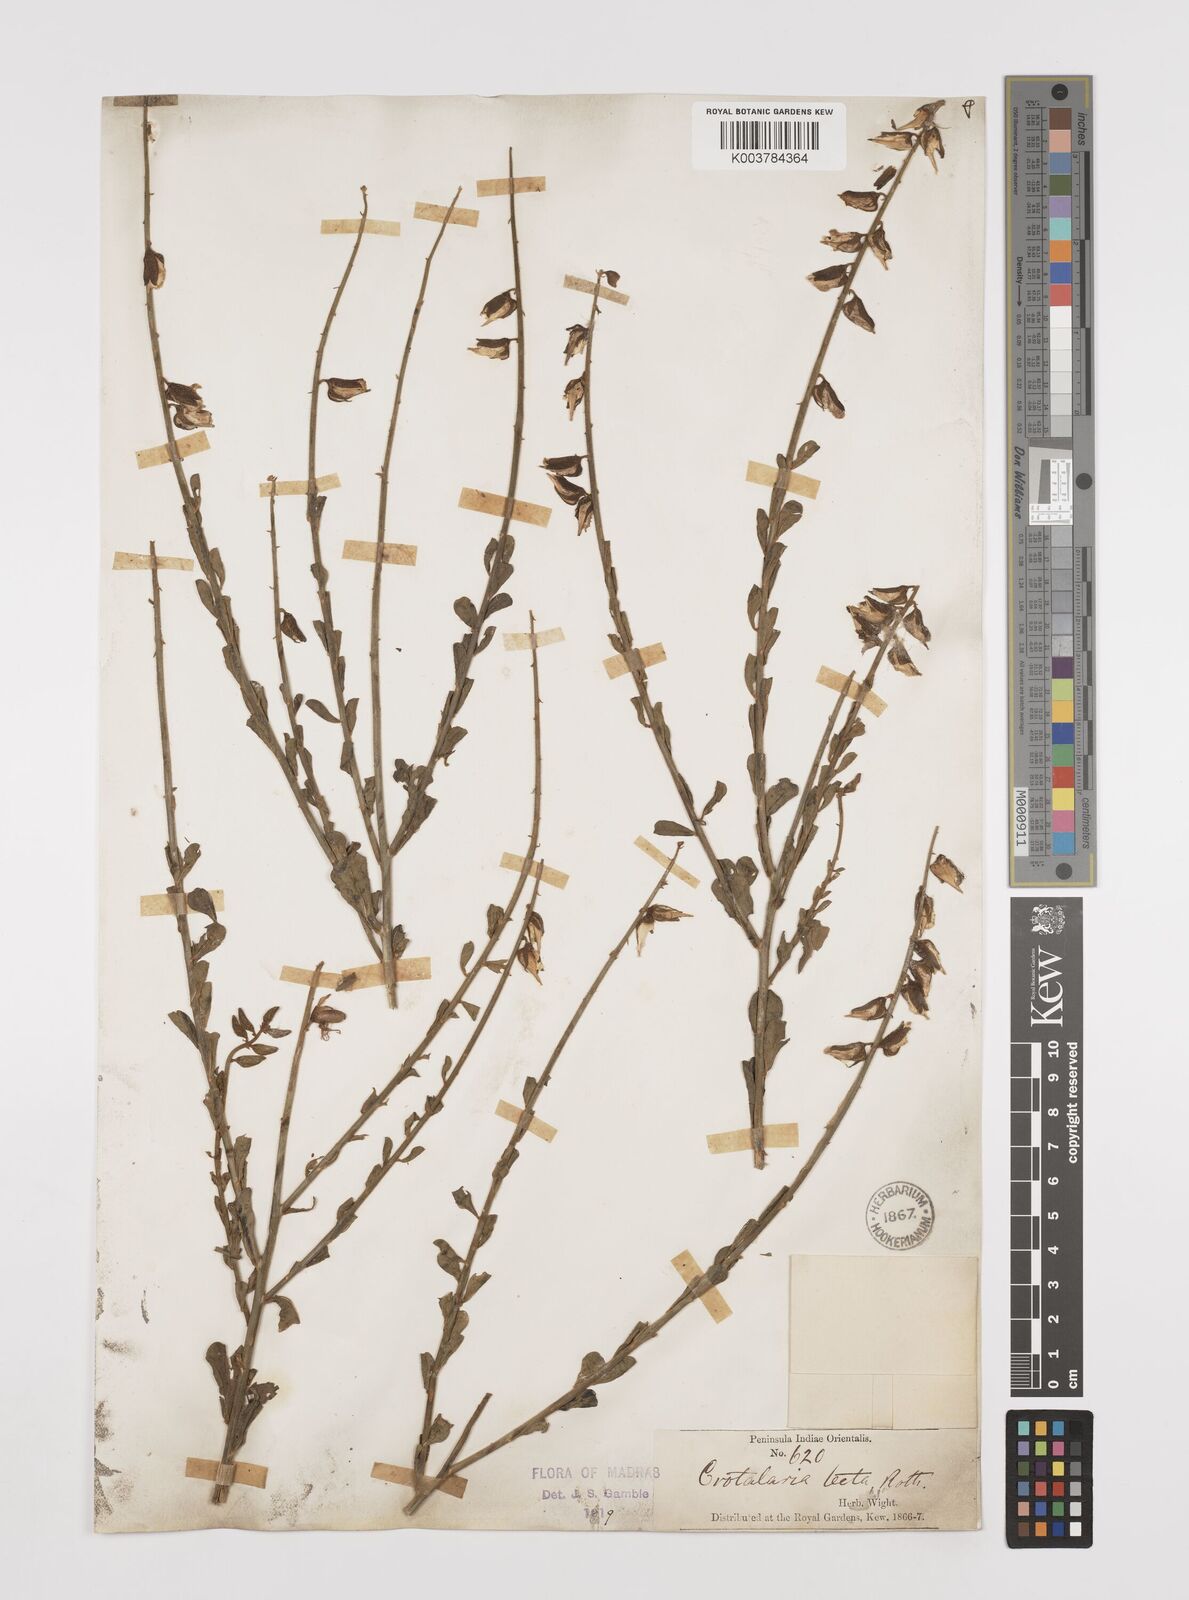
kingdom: Plantae
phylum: Tracheophyta
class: Magnoliopsida
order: Fabales
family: Fabaceae
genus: Crotalaria
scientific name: Crotalaria linifolia
